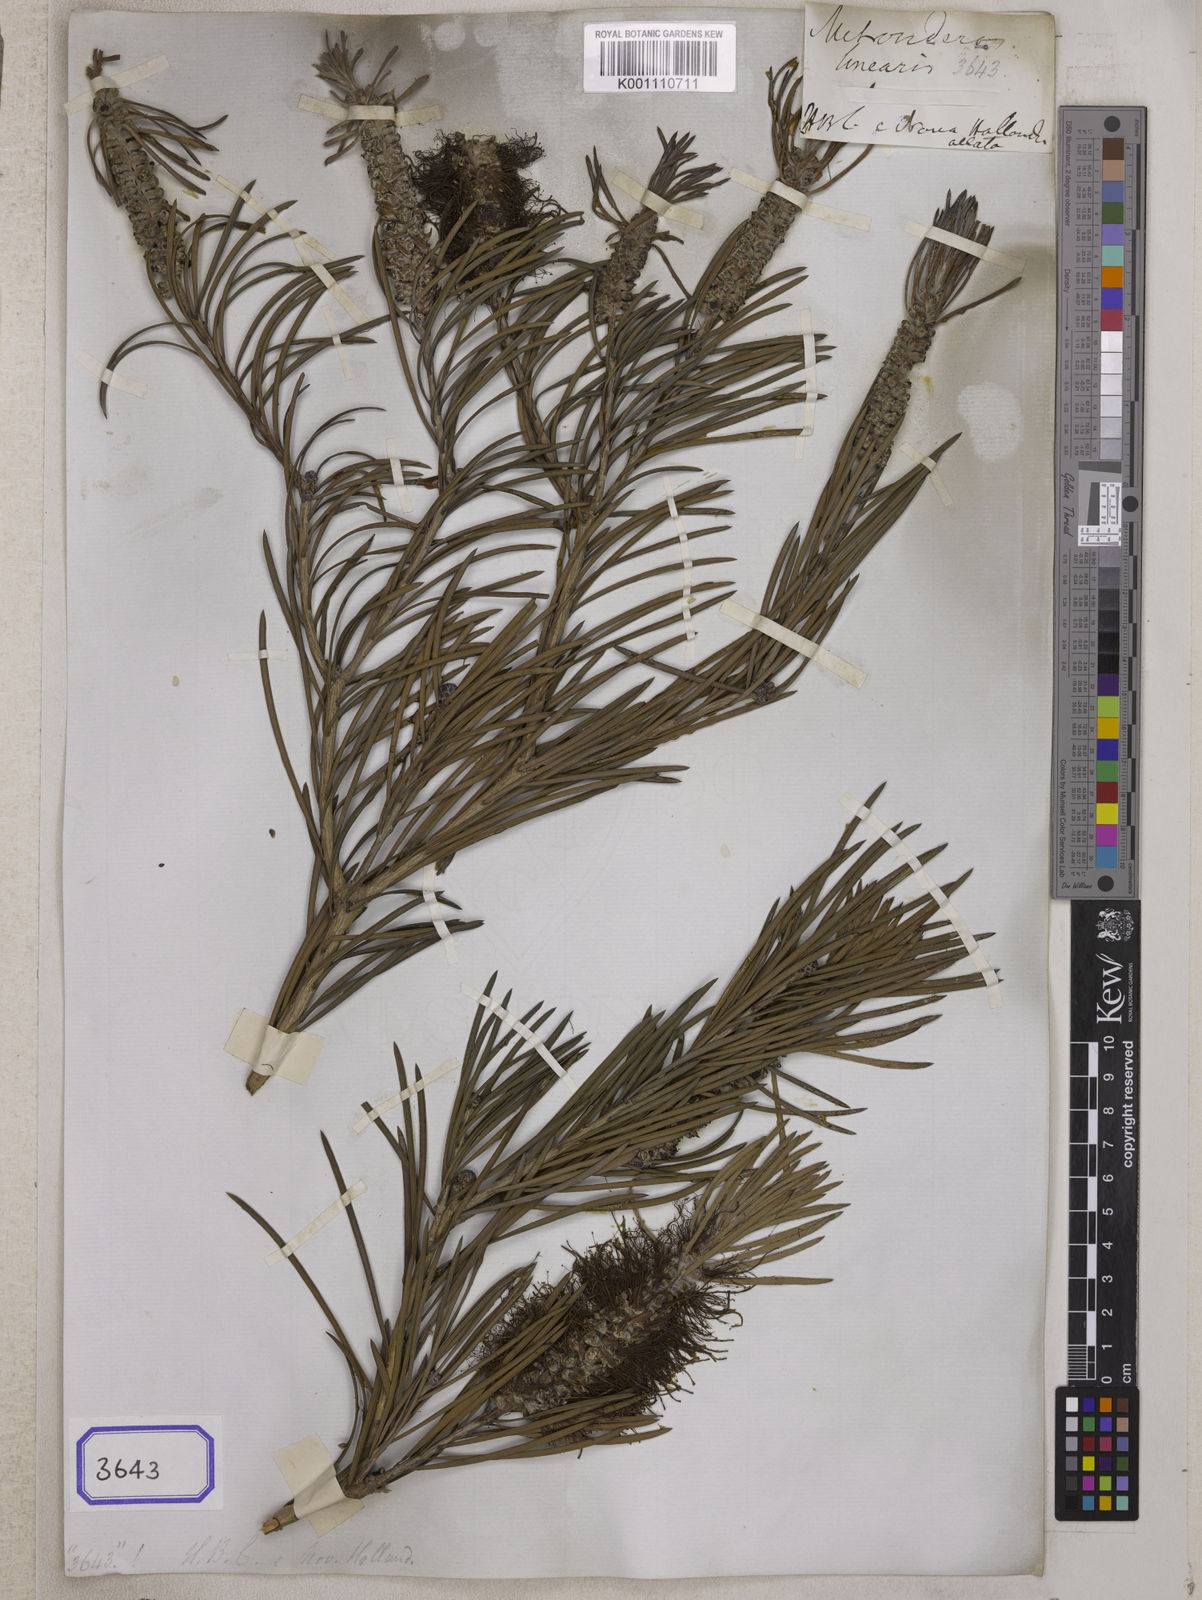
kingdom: Plantae
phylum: Tracheophyta
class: Magnoliopsida
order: Myrtales
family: Myrtaceae
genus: Xanthostemon
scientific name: Xanthostemon verus
